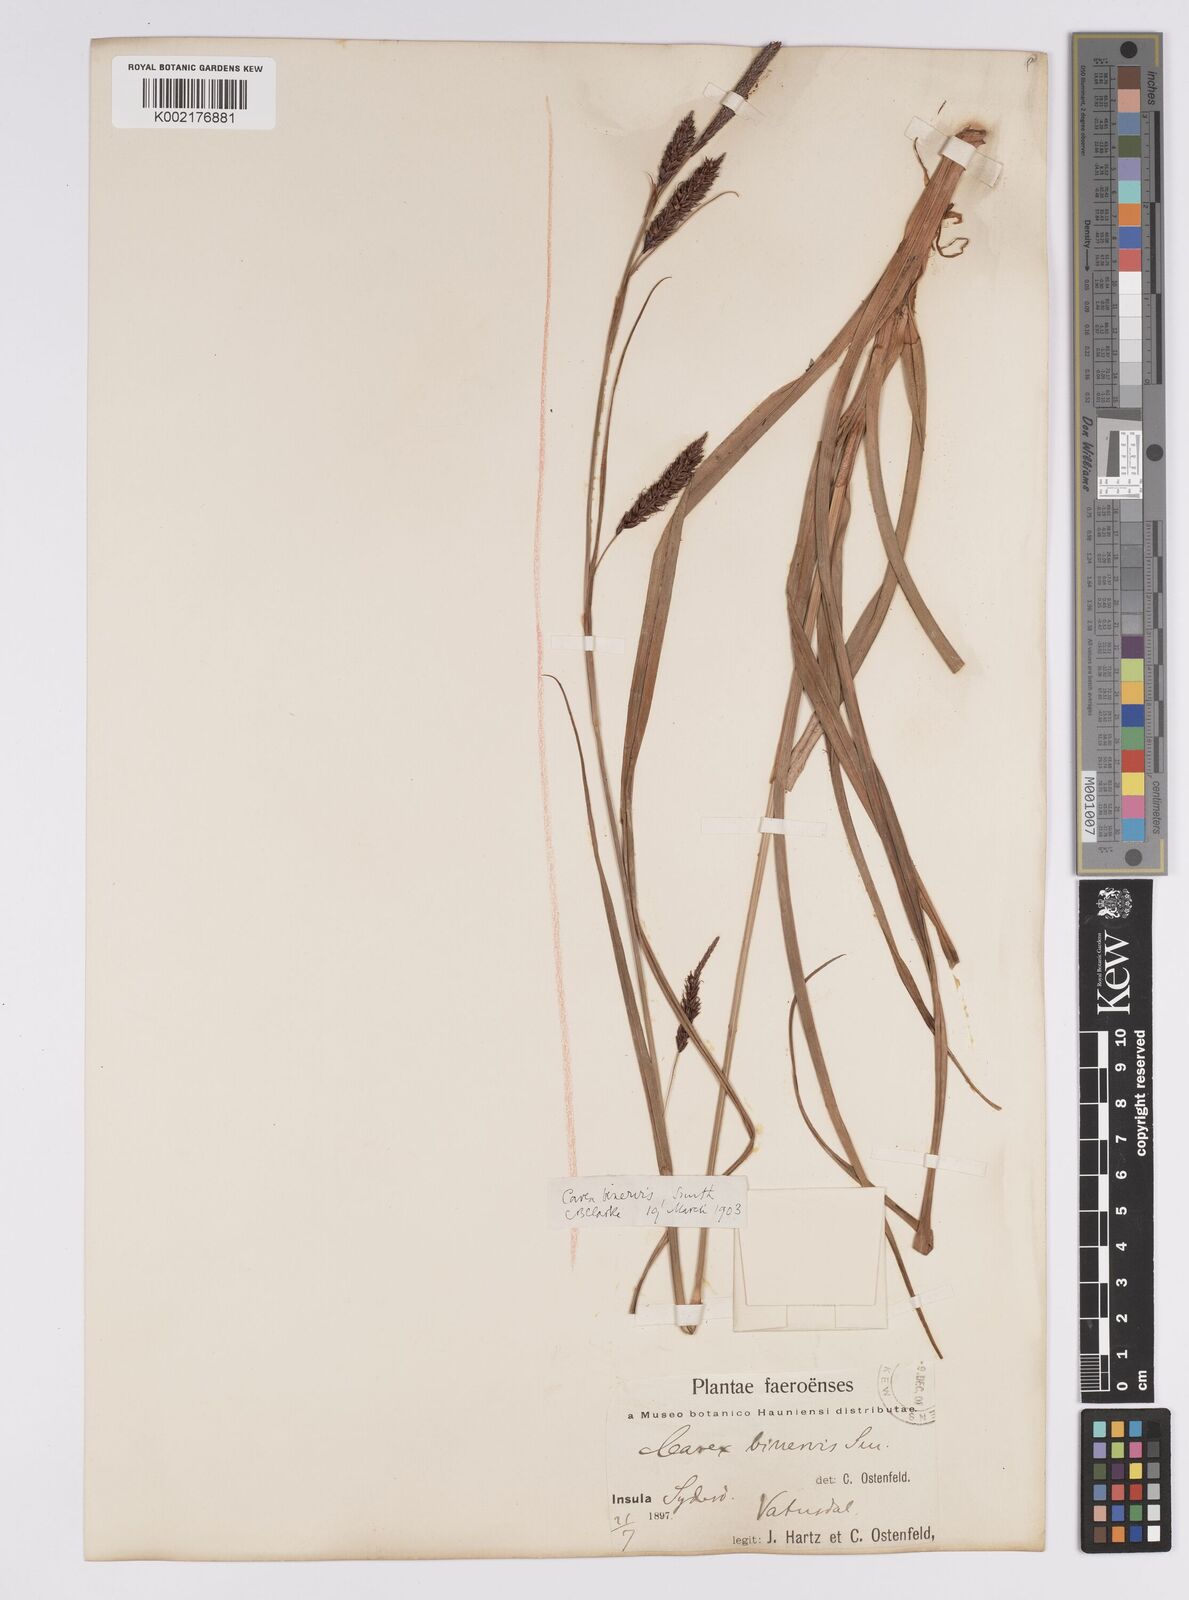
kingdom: Plantae
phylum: Tracheophyta
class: Liliopsida
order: Poales
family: Cyperaceae
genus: Carex
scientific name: Carex binervis
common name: Green-ribbed sedge
